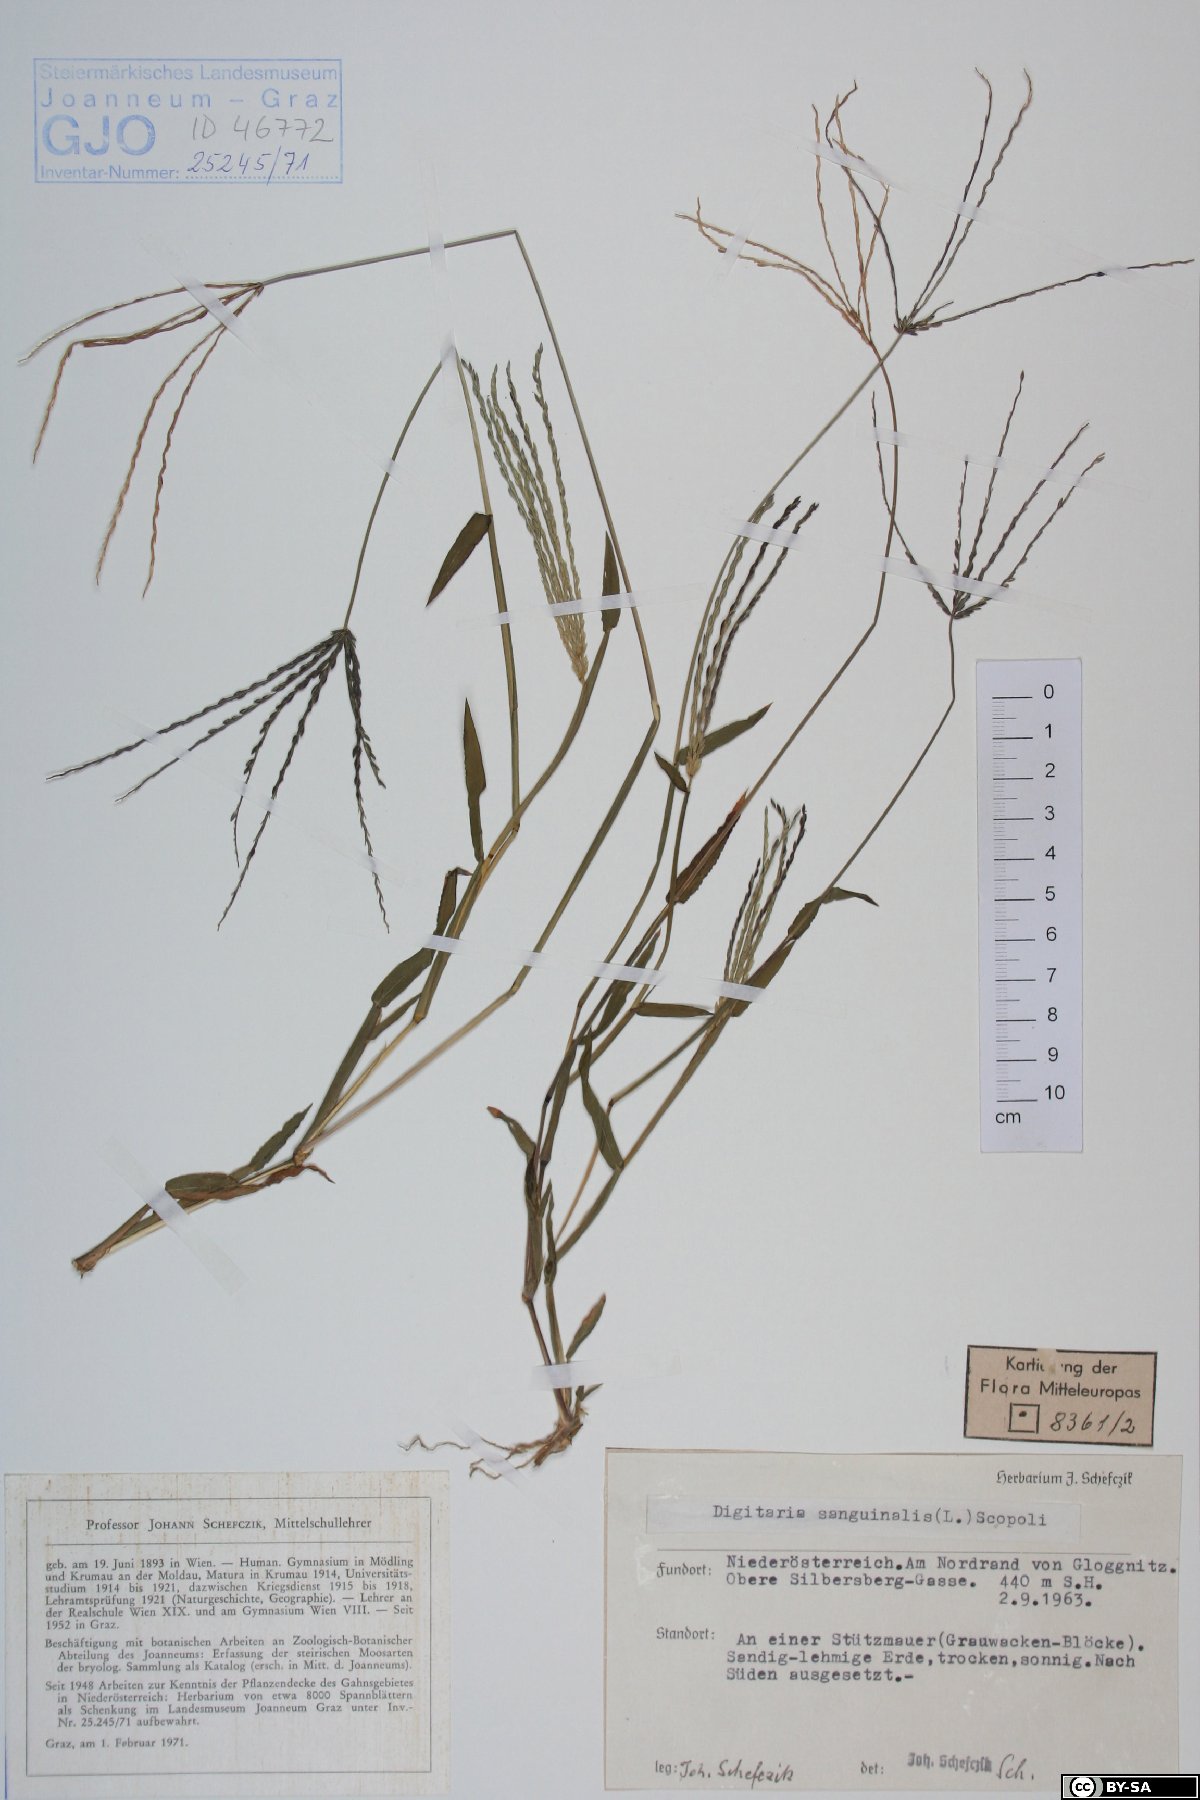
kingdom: Plantae
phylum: Tracheophyta
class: Liliopsida
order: Poales
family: Poaceae
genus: Digitaria
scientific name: Digitaria sanguinalis
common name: Hairy crabgrass
